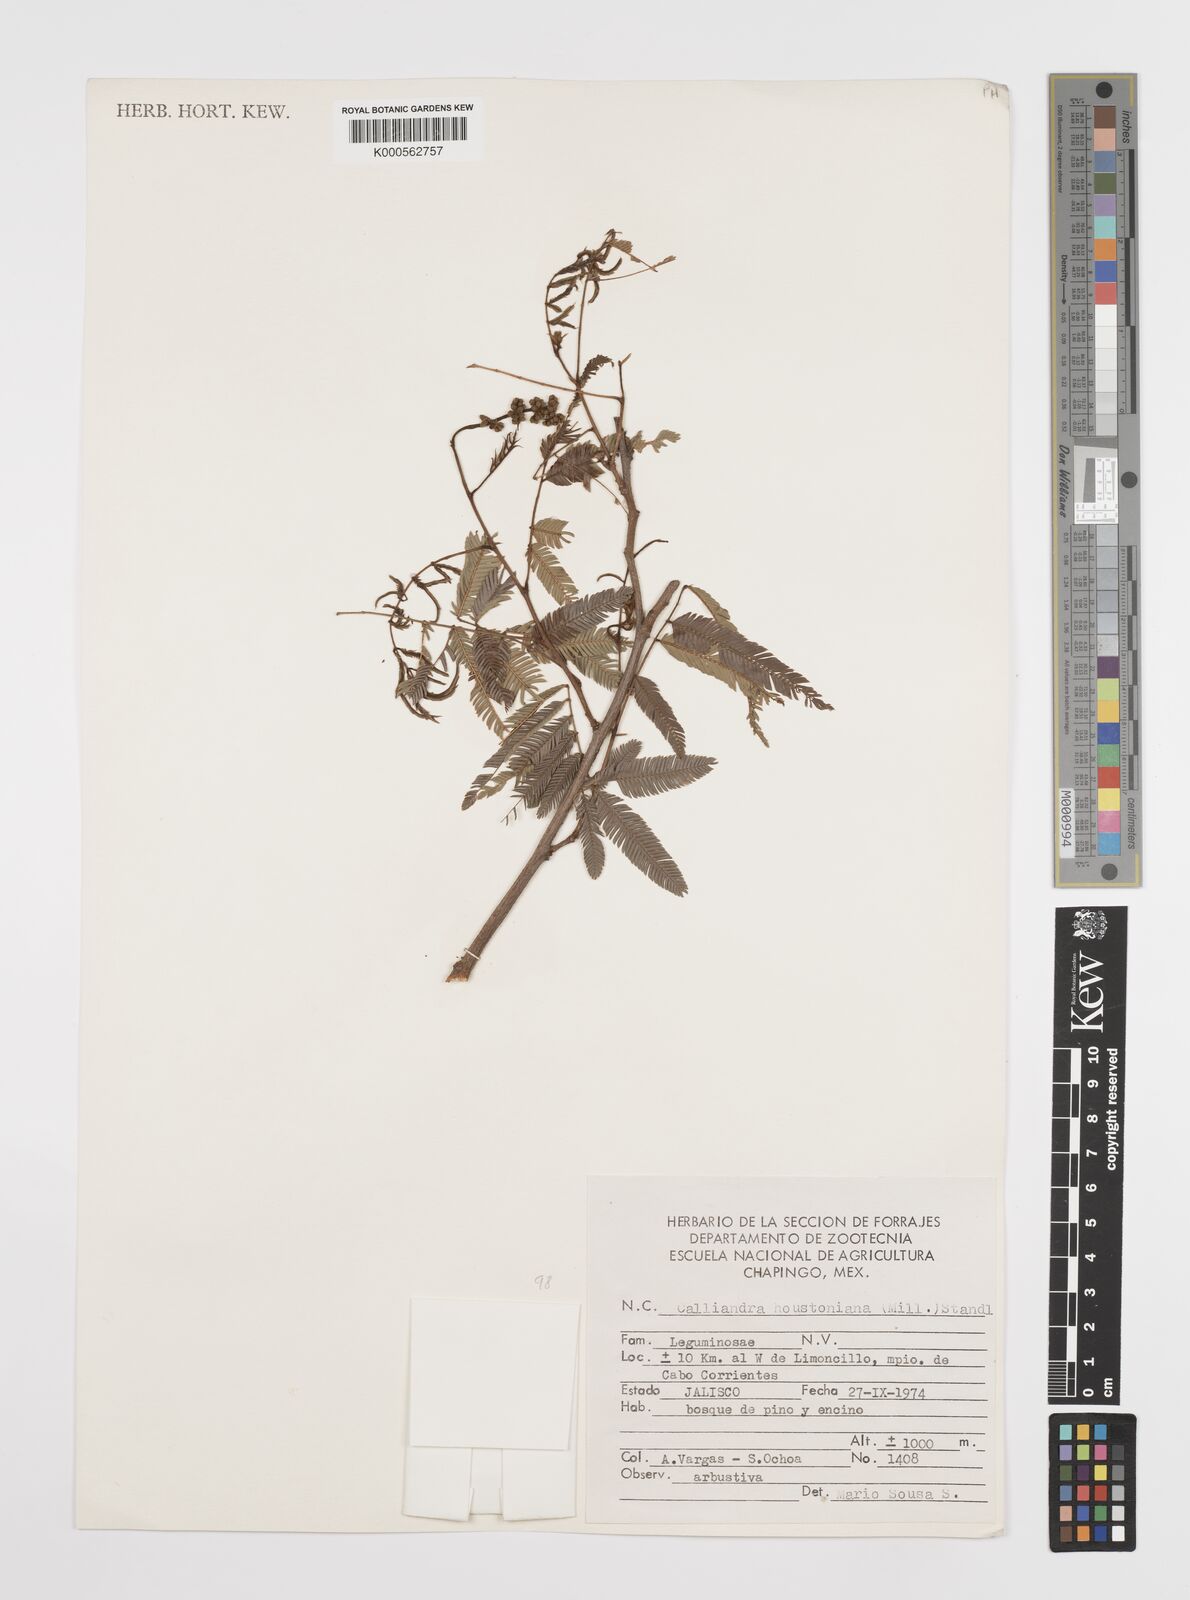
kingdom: Plantae
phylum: Tracheophyta
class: Magnoliopsida
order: Fabales
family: Fabaceae
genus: Calliandra
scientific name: Calliandra houstoniana
